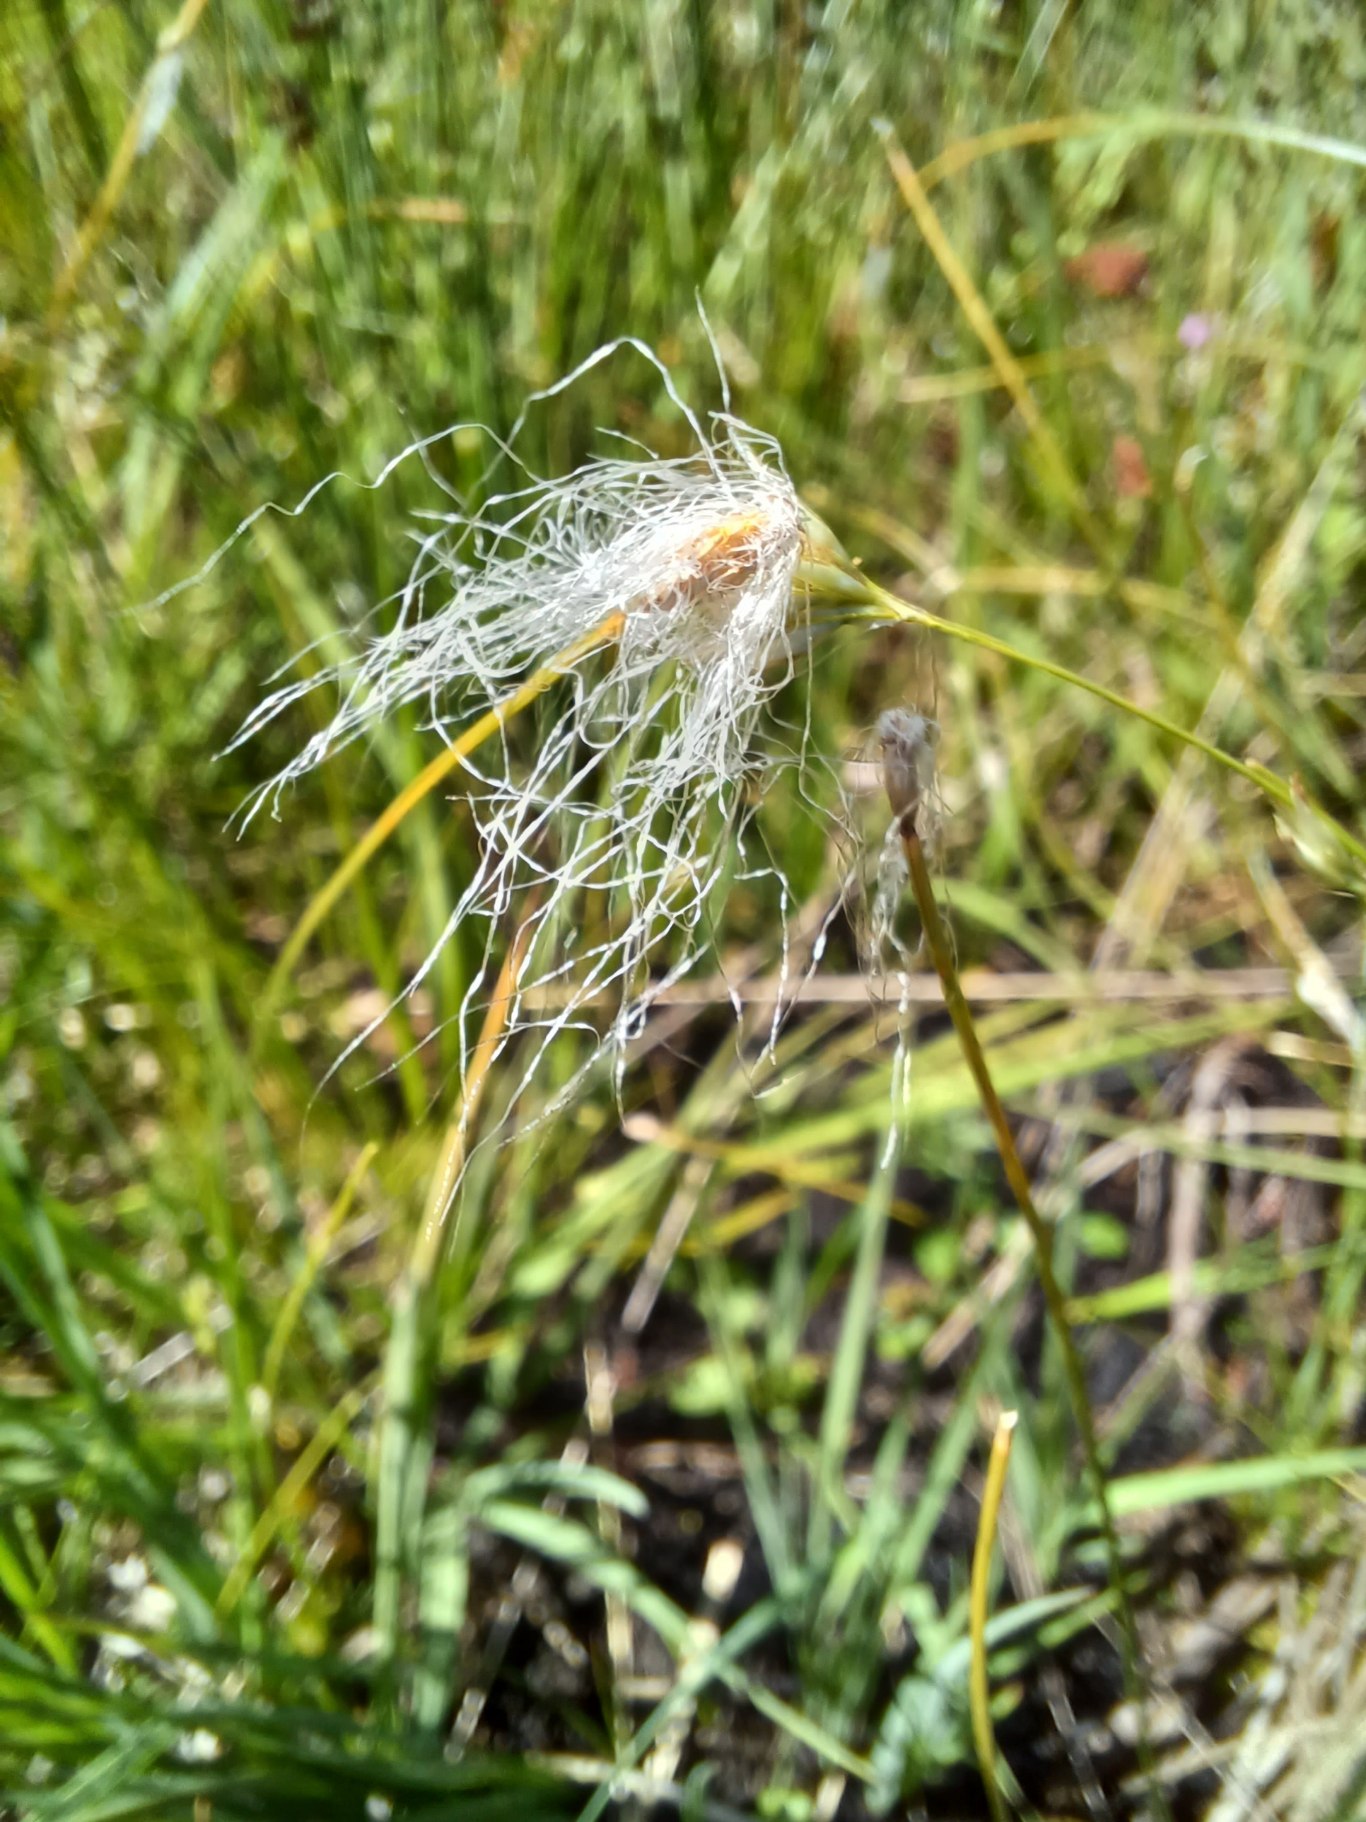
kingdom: Plantae
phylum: Tracheophyta
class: Liliopsida
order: Poales
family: Cyperaceae
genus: Trichophorum
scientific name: Trichophorum alpinum
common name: Liden kæruld
